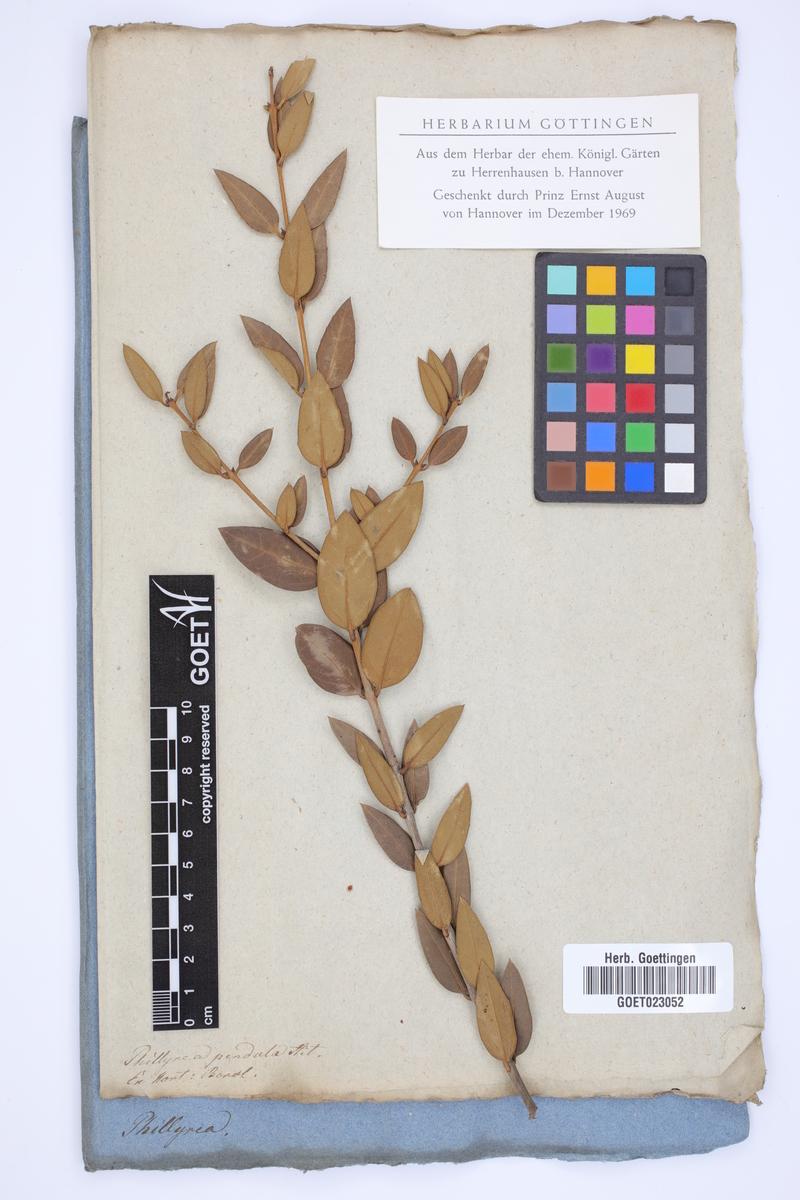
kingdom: Plantae
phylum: Tracheophyta
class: Magnoliopsida
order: Lamiales
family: Oleaceae
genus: Phillyrea
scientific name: Phillyrea latifolia
